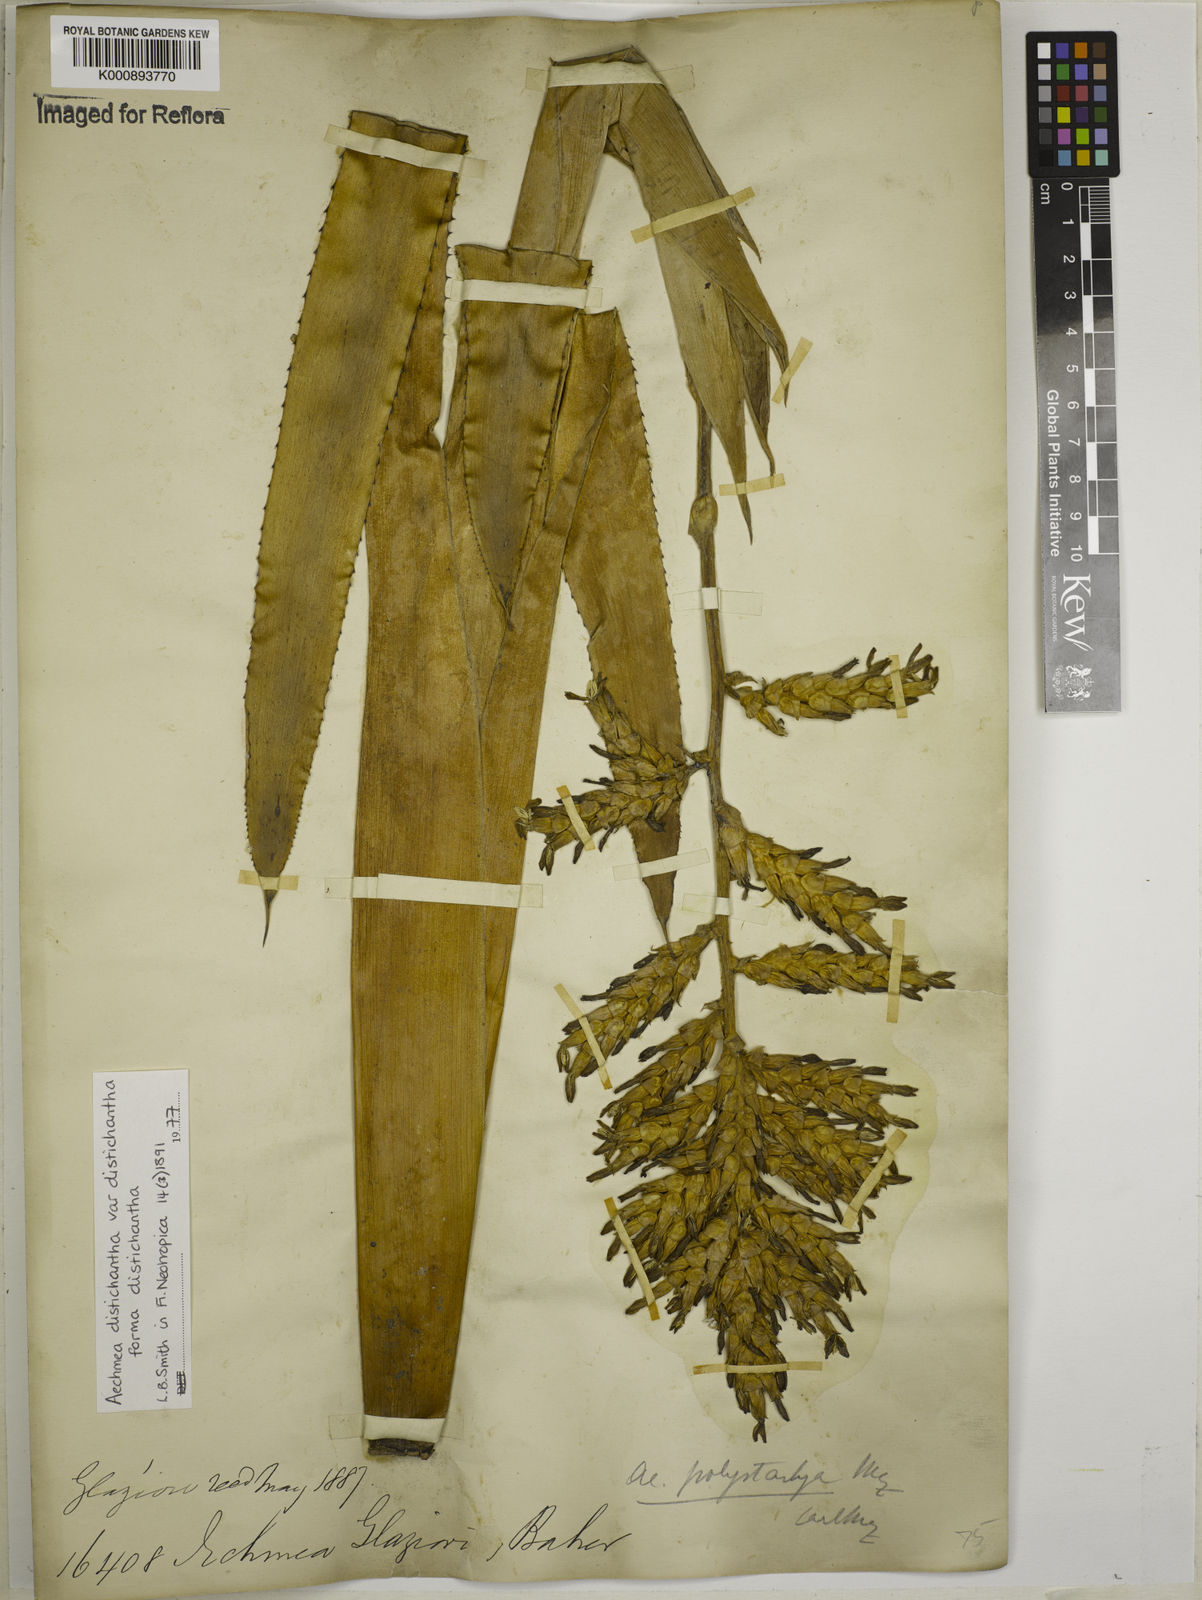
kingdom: Plantae
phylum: Tracheophyta
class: Liliopsida
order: Poales
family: Bromeliaceae
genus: Aechmea
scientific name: Aechmea distichantha
